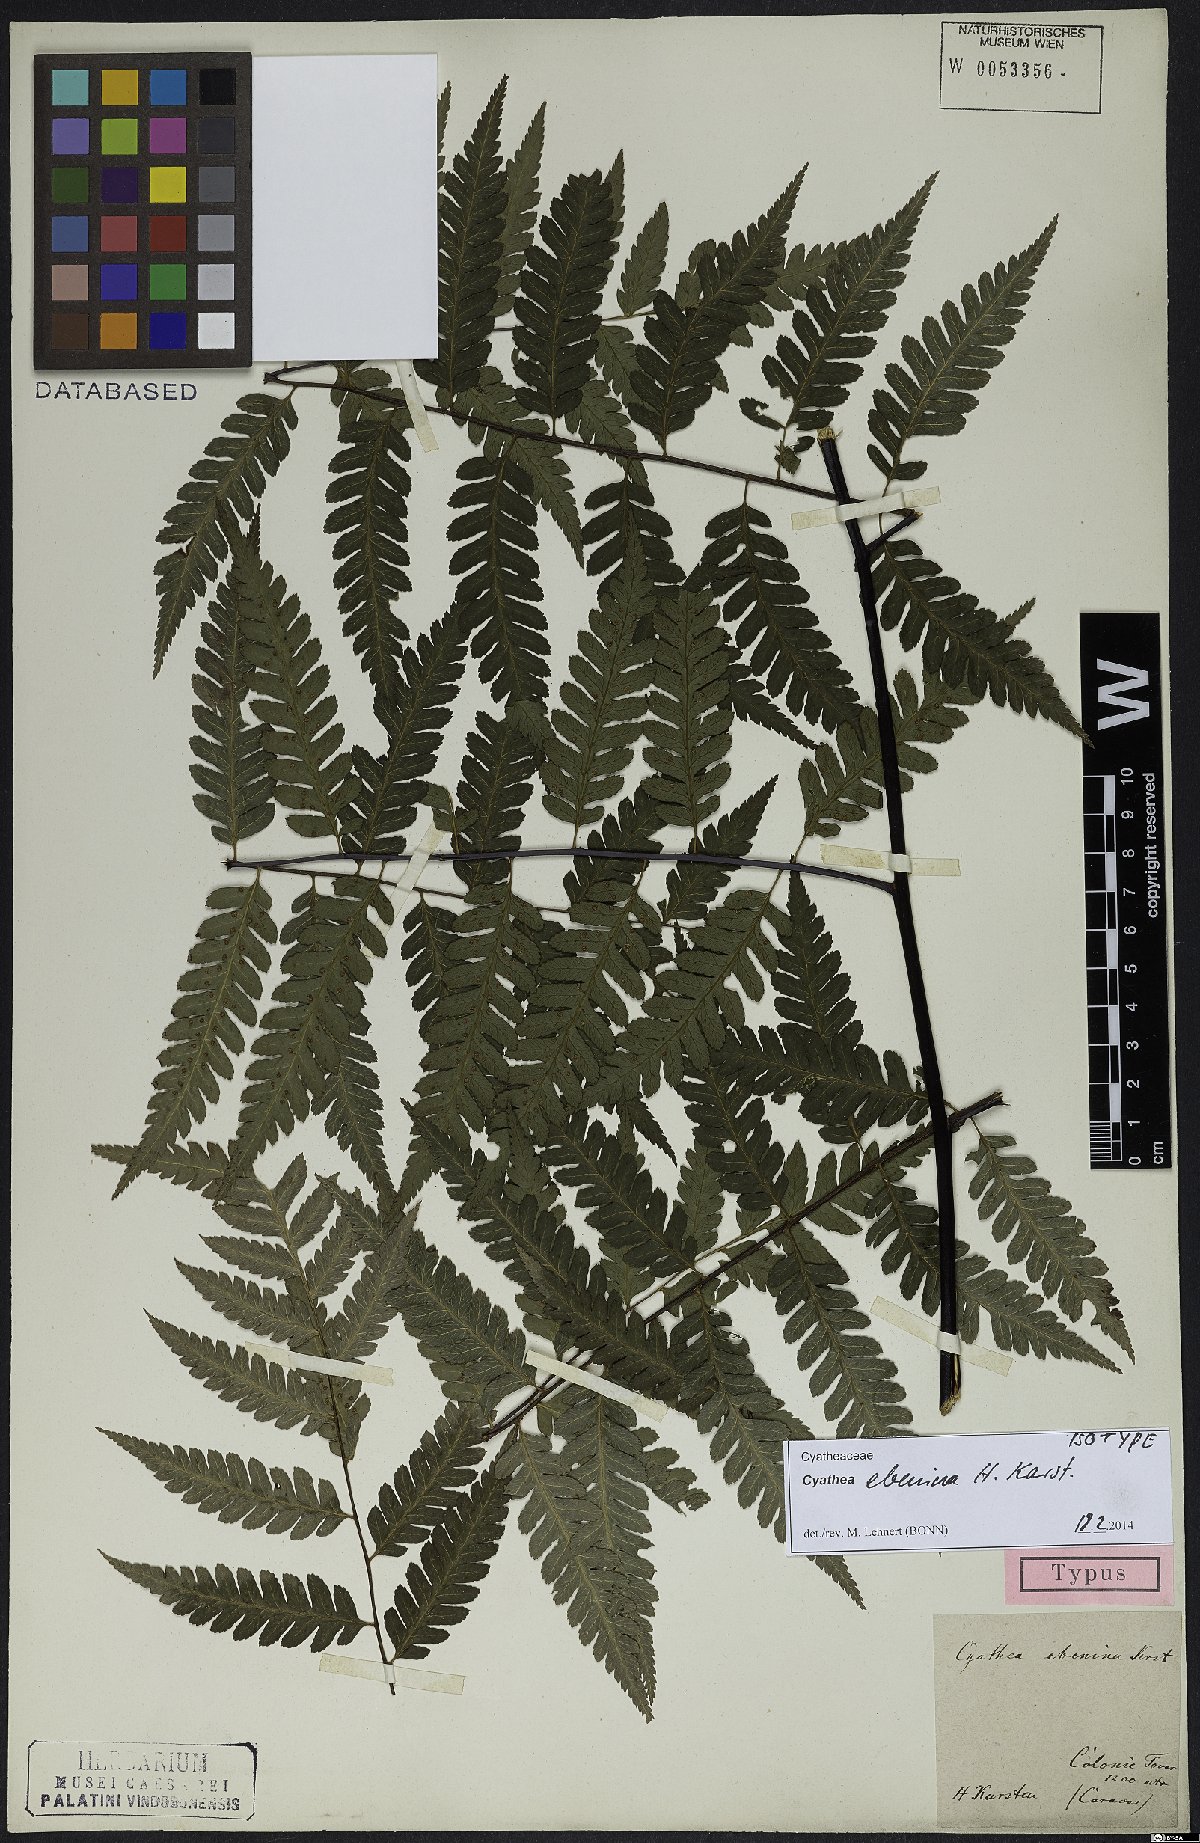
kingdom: Plantae
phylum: Tracheophyta
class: Polypodiopsida
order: Cyatheales
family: Cyatheaceae
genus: Cyathea
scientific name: Cyathea ebenina
